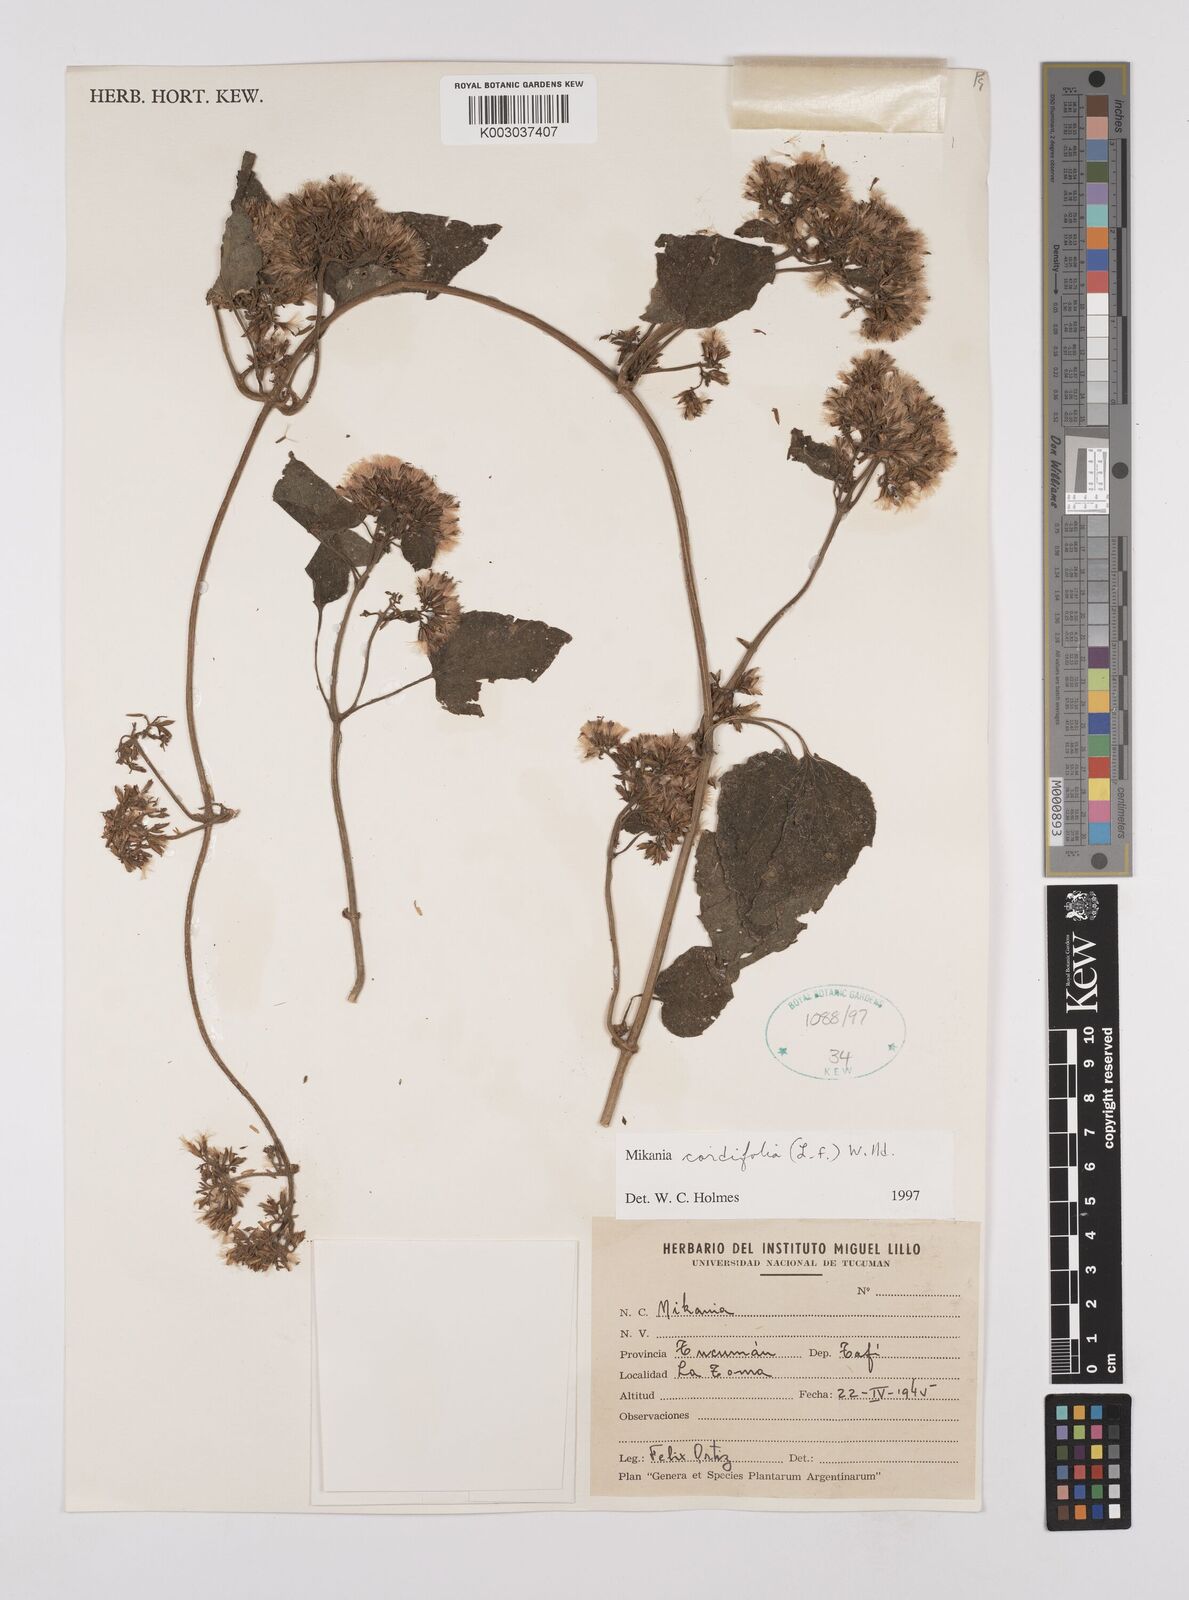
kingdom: Plantae
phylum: Tracheophyta
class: Magnoliopsida
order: Asterales
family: Asteraceae
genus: Mikania
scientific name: Mikania cordifolia
